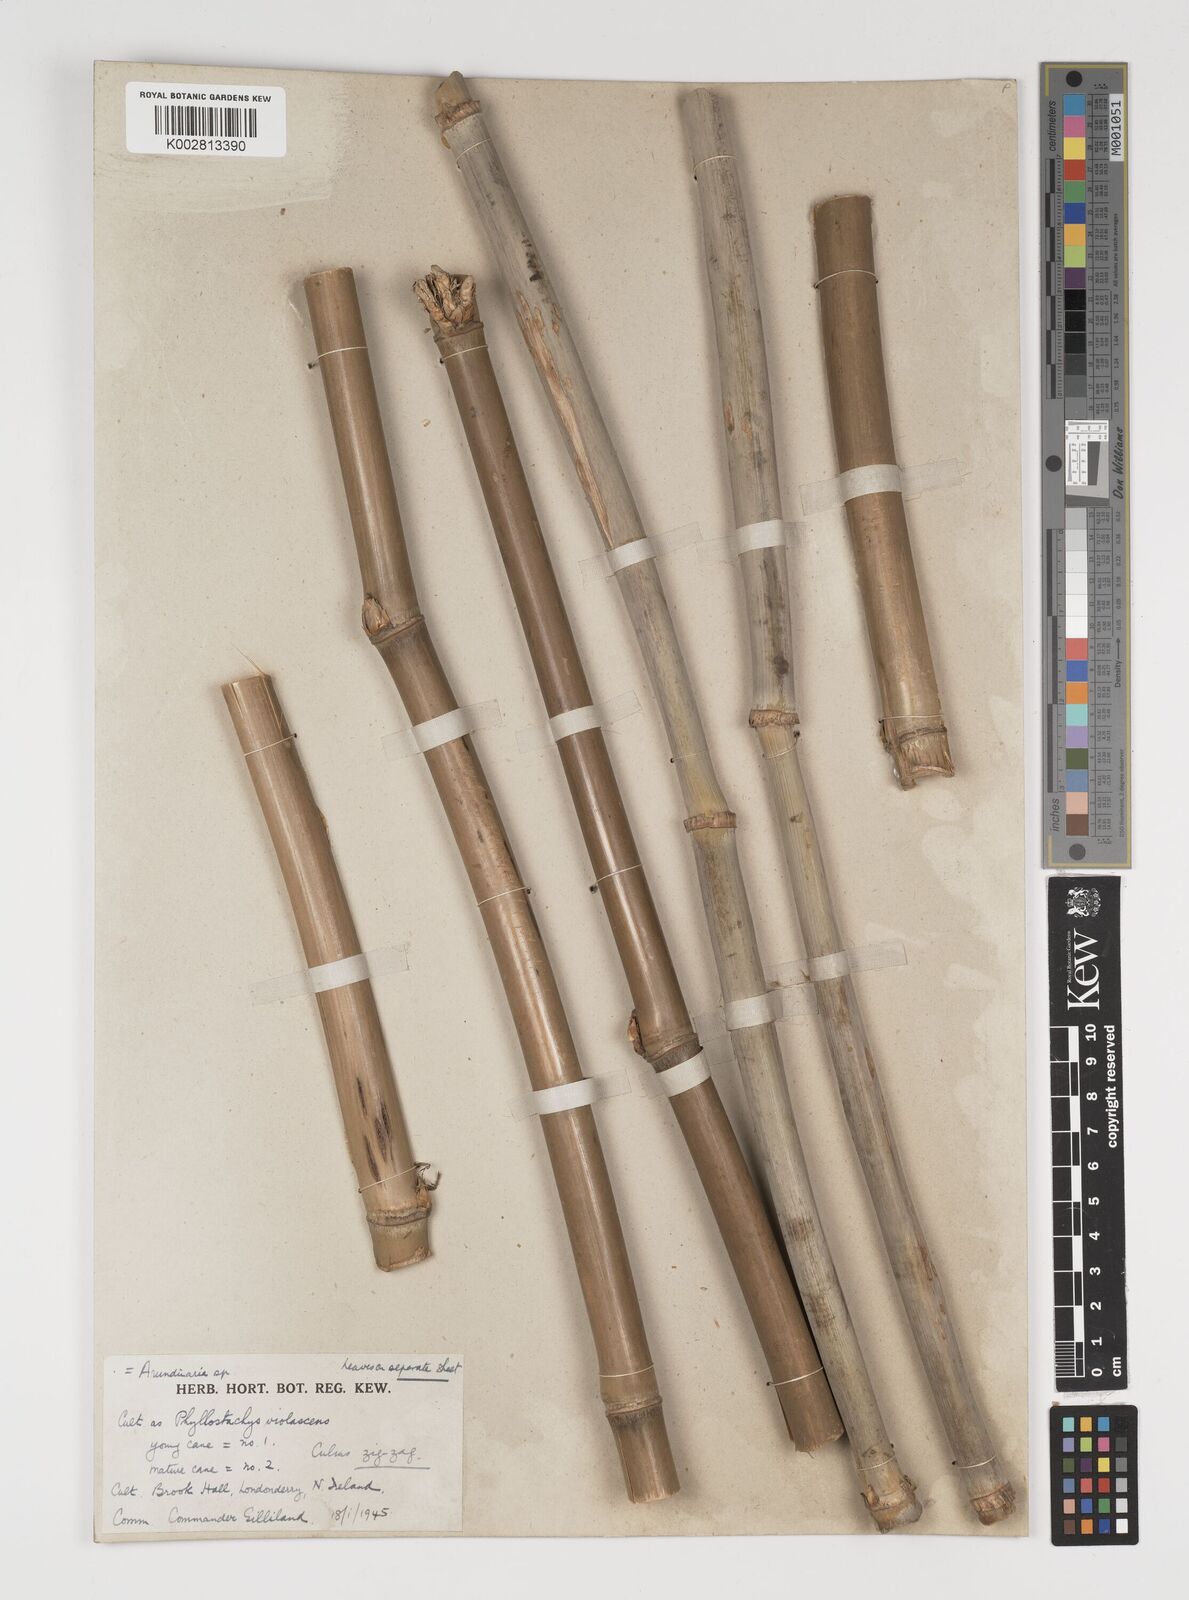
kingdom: Plantae
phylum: Tracheophyta
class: Liliopsida
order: Poales
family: Poaceae
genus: Thamnocalamus
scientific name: Thamnocalamus spathiflorus
